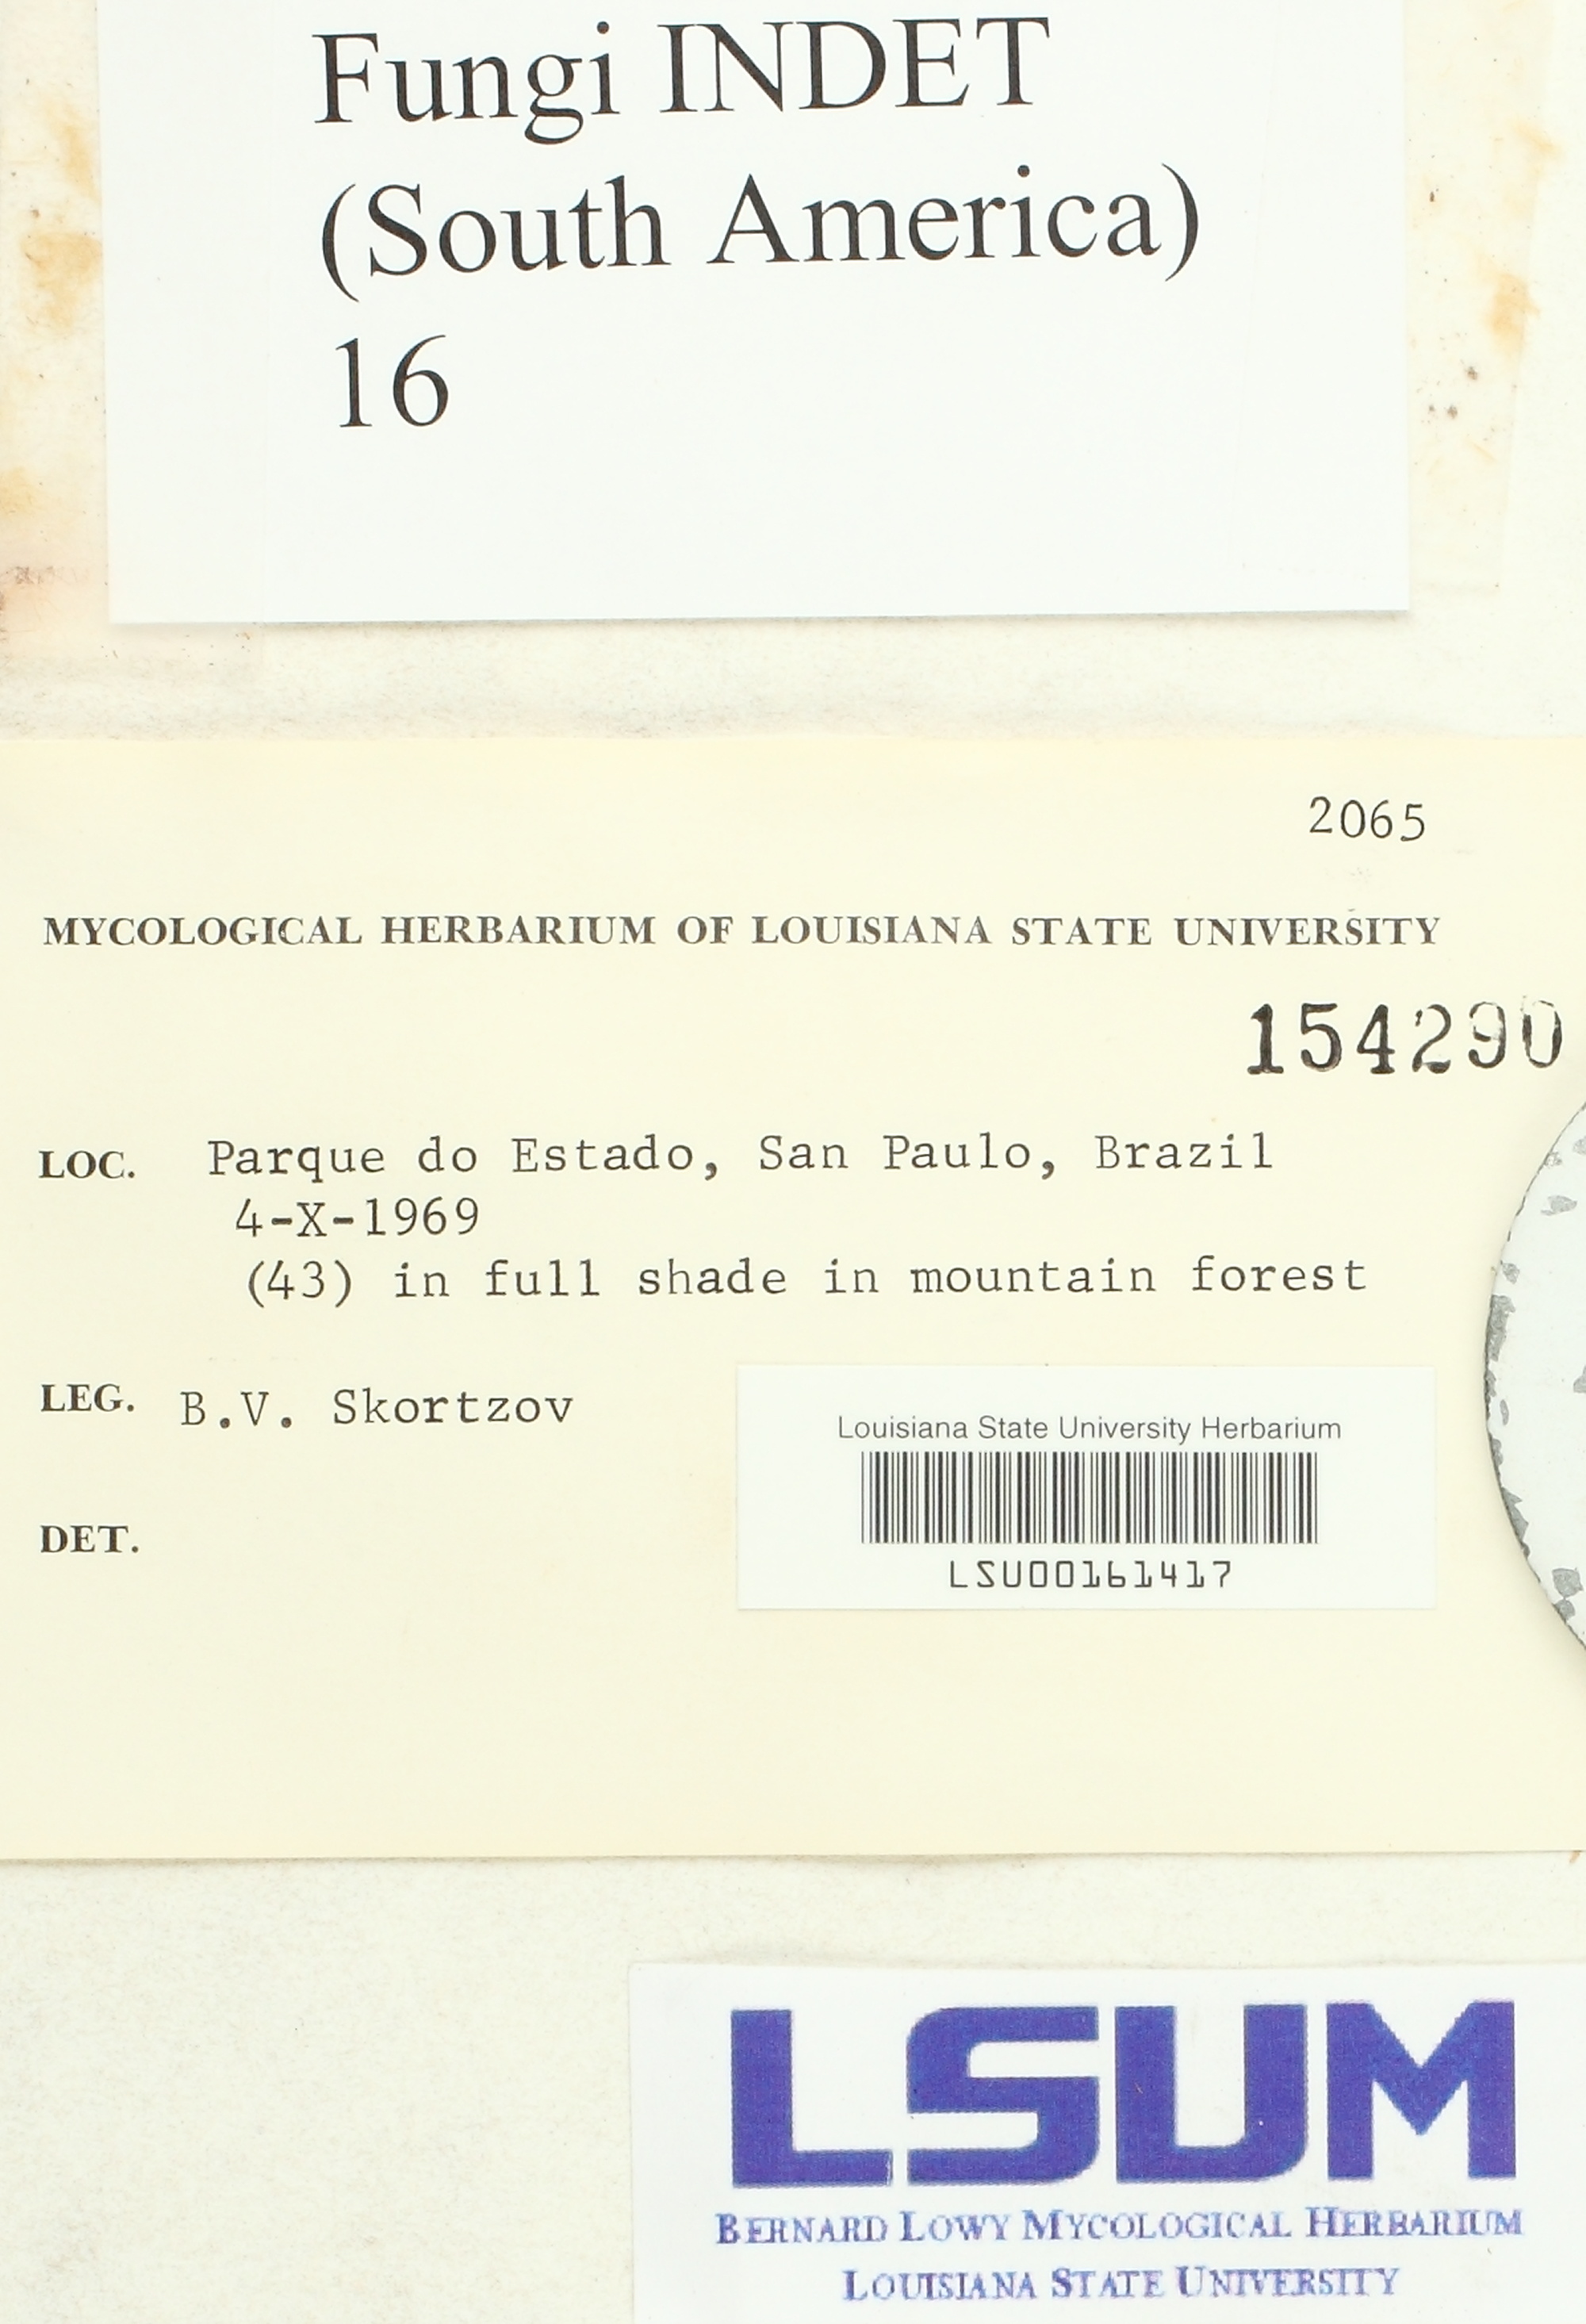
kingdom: Fungi
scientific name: Fungi
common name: Fungi
